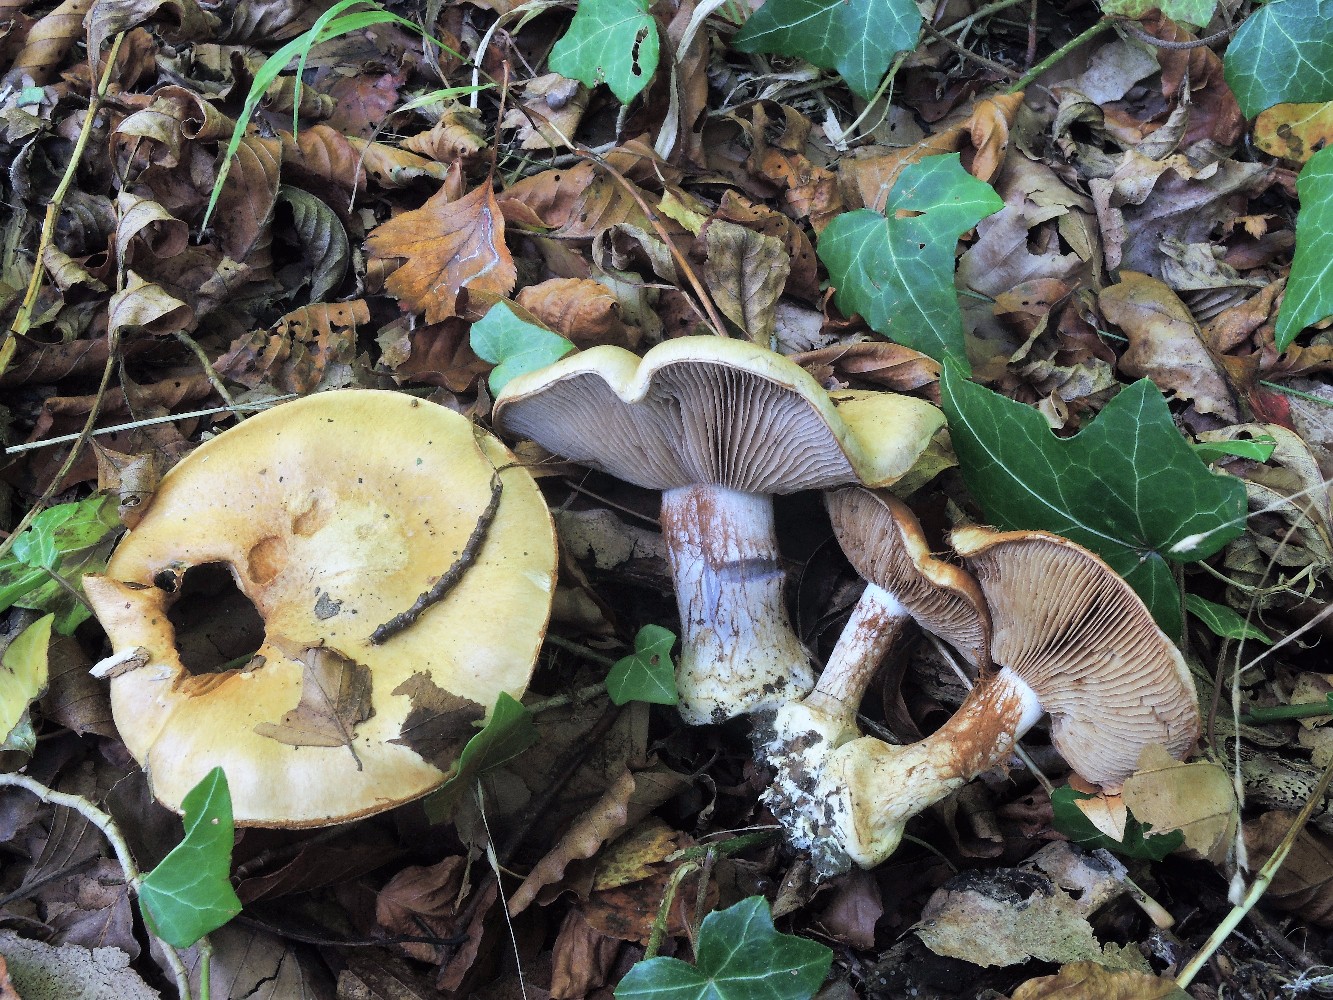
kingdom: Fungi
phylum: Basidiomycota
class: Agaricomycetes
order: Agaricales
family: Cortinariaceae
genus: Cortinarius
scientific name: Cortinarius anserinus
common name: bøge-slørhat
